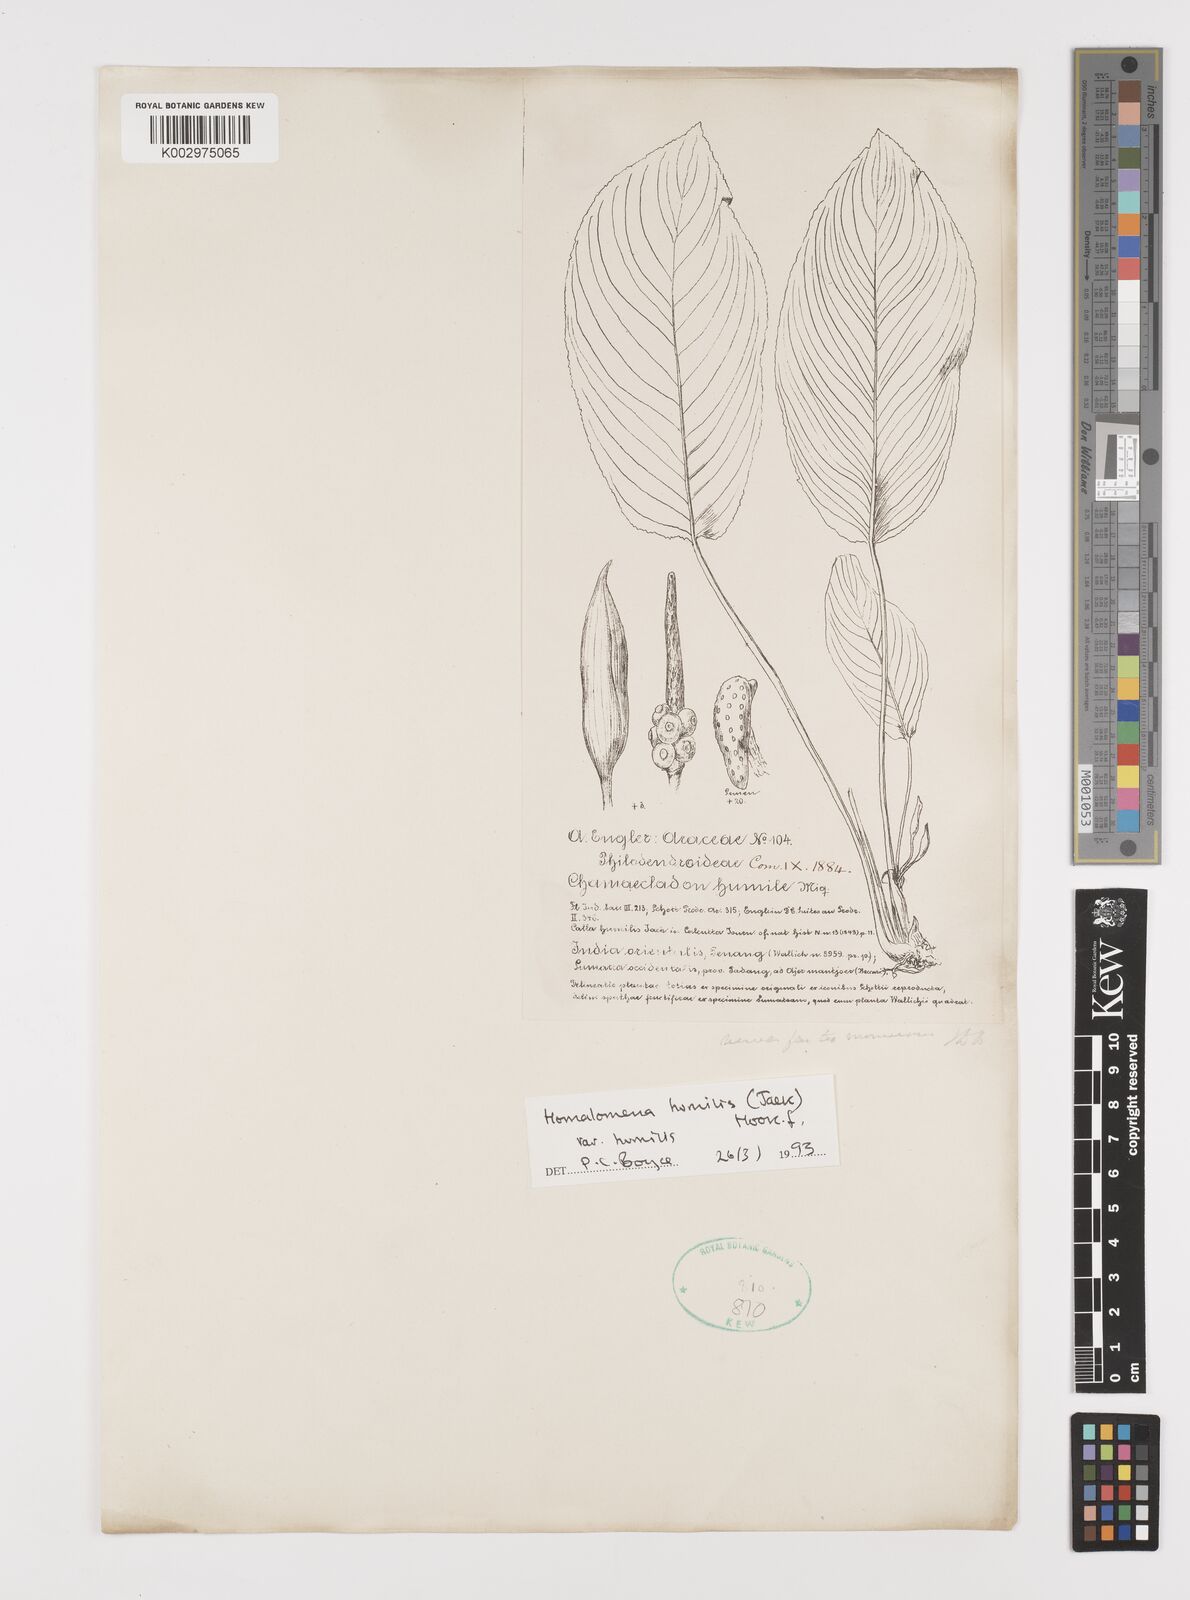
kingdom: Plantae
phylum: Tracheophyta
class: Liliopsida
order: Alismatales
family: Araceae
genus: Homalomena
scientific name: Homalomena humilis
